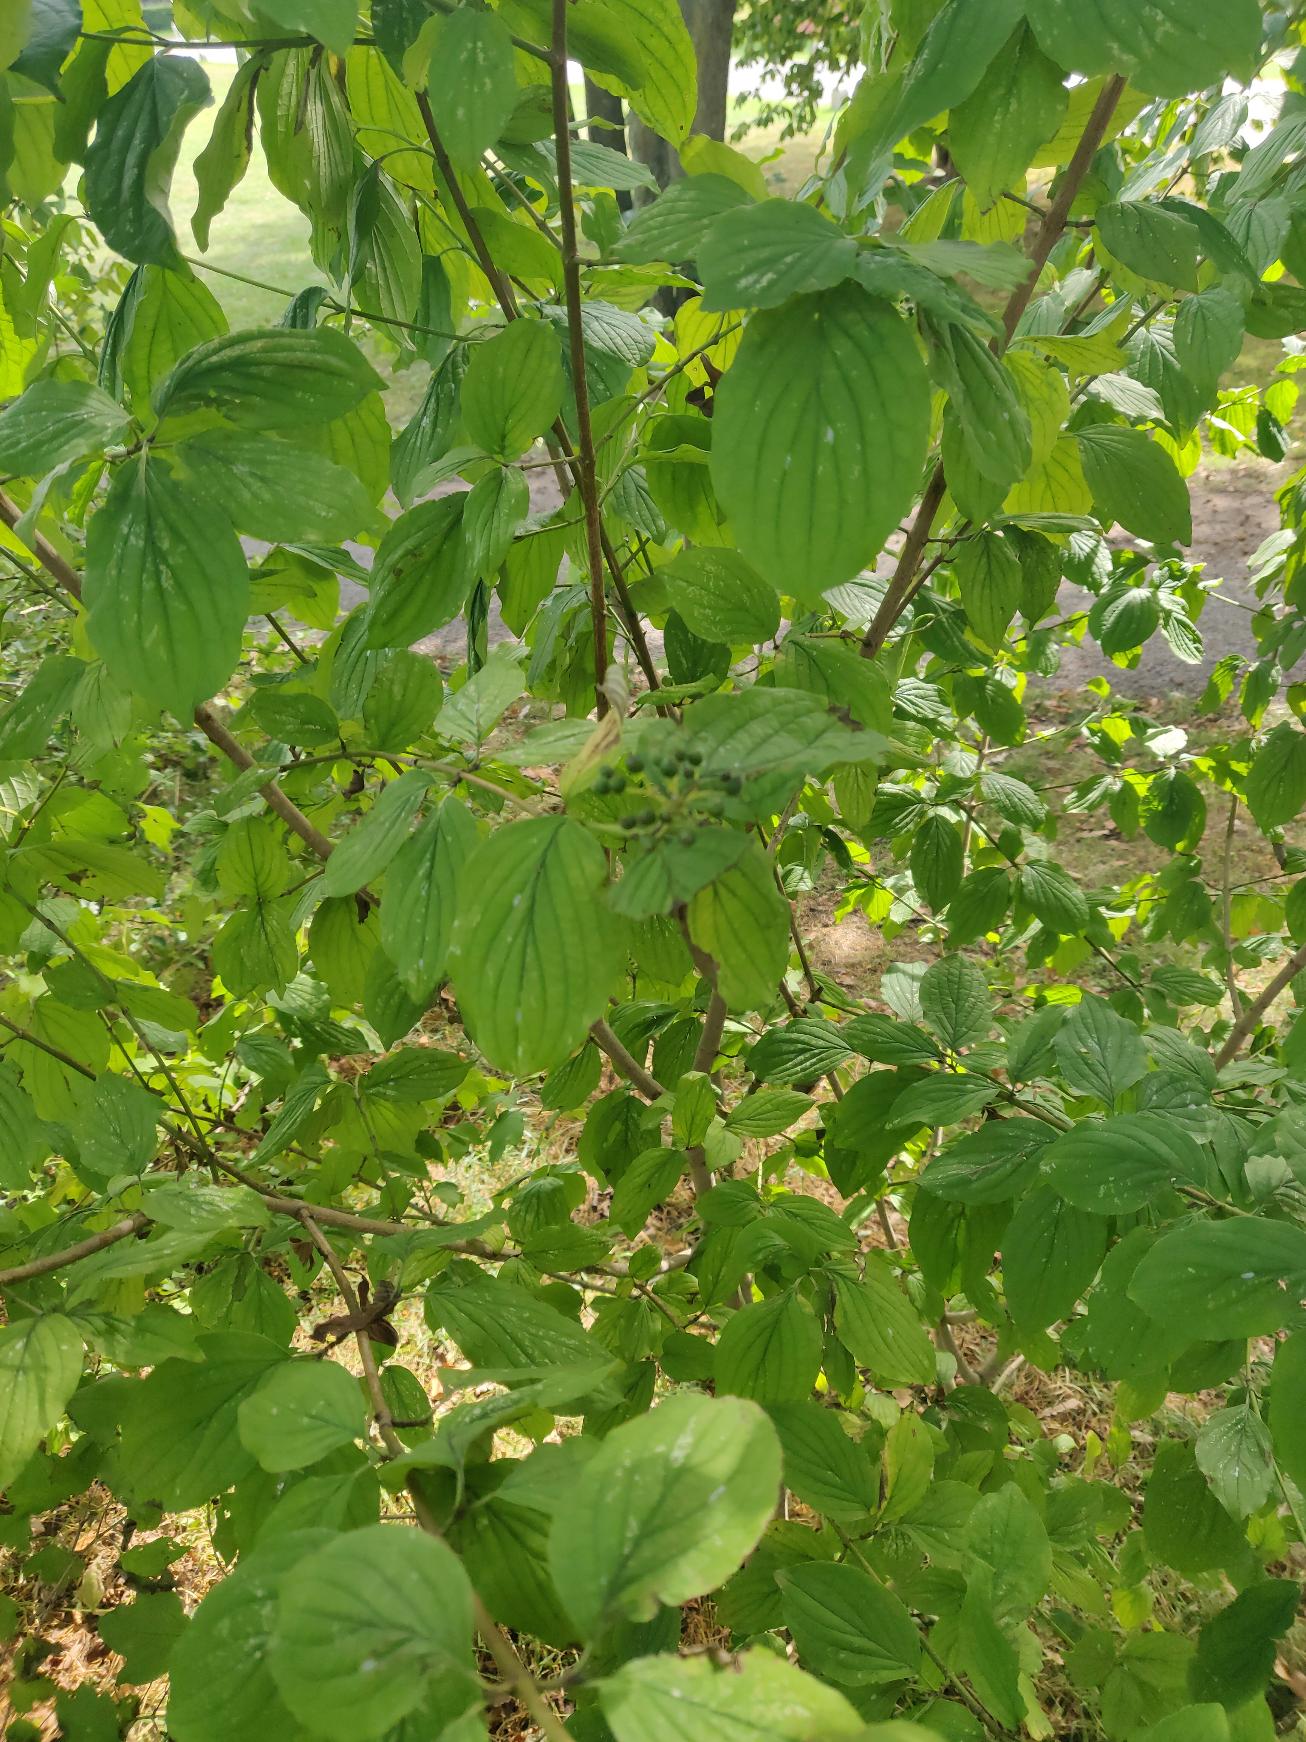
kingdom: Plantae
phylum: Tracheophyta
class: Magnoliopsida
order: Cornales
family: Cornaceae
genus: Cornus
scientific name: Cornus sanguinea
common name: Rød kornel
